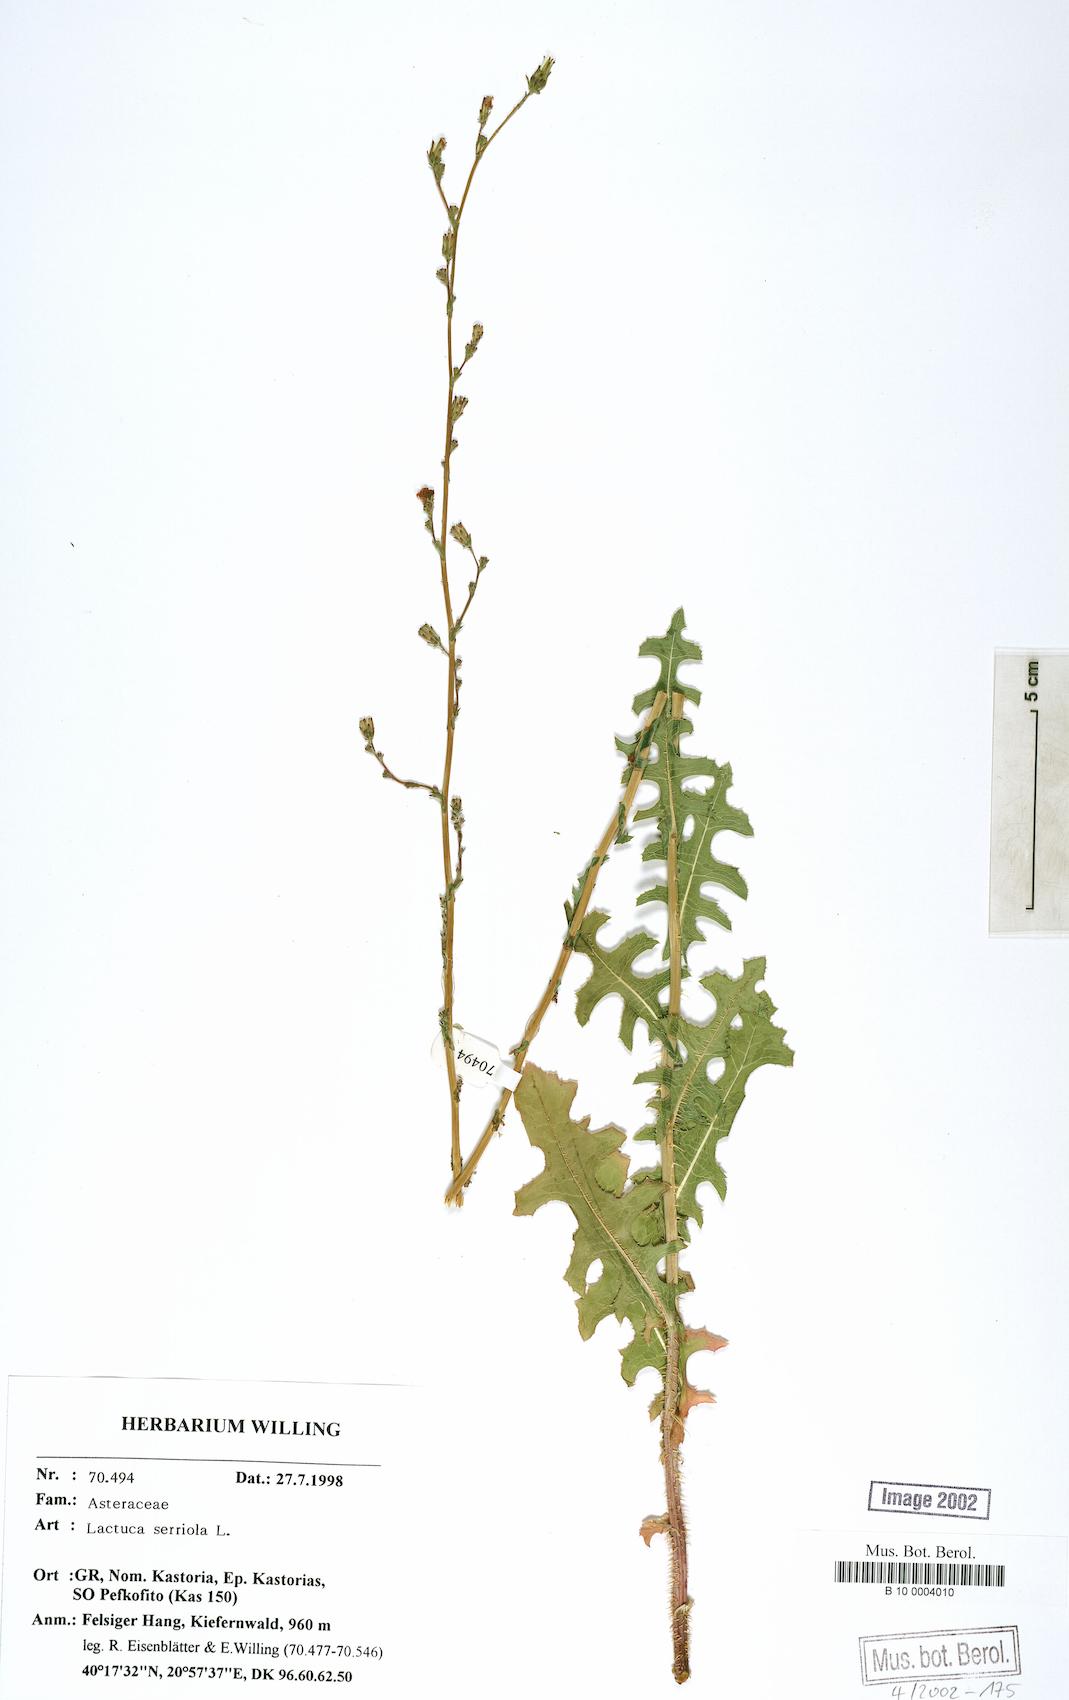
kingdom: Plantae
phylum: Tracheophyta
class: Magnoliopsida
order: Asterales
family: Asteraceae
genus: Lactuca
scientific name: Lactuca serriola
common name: Prickly lettuce
